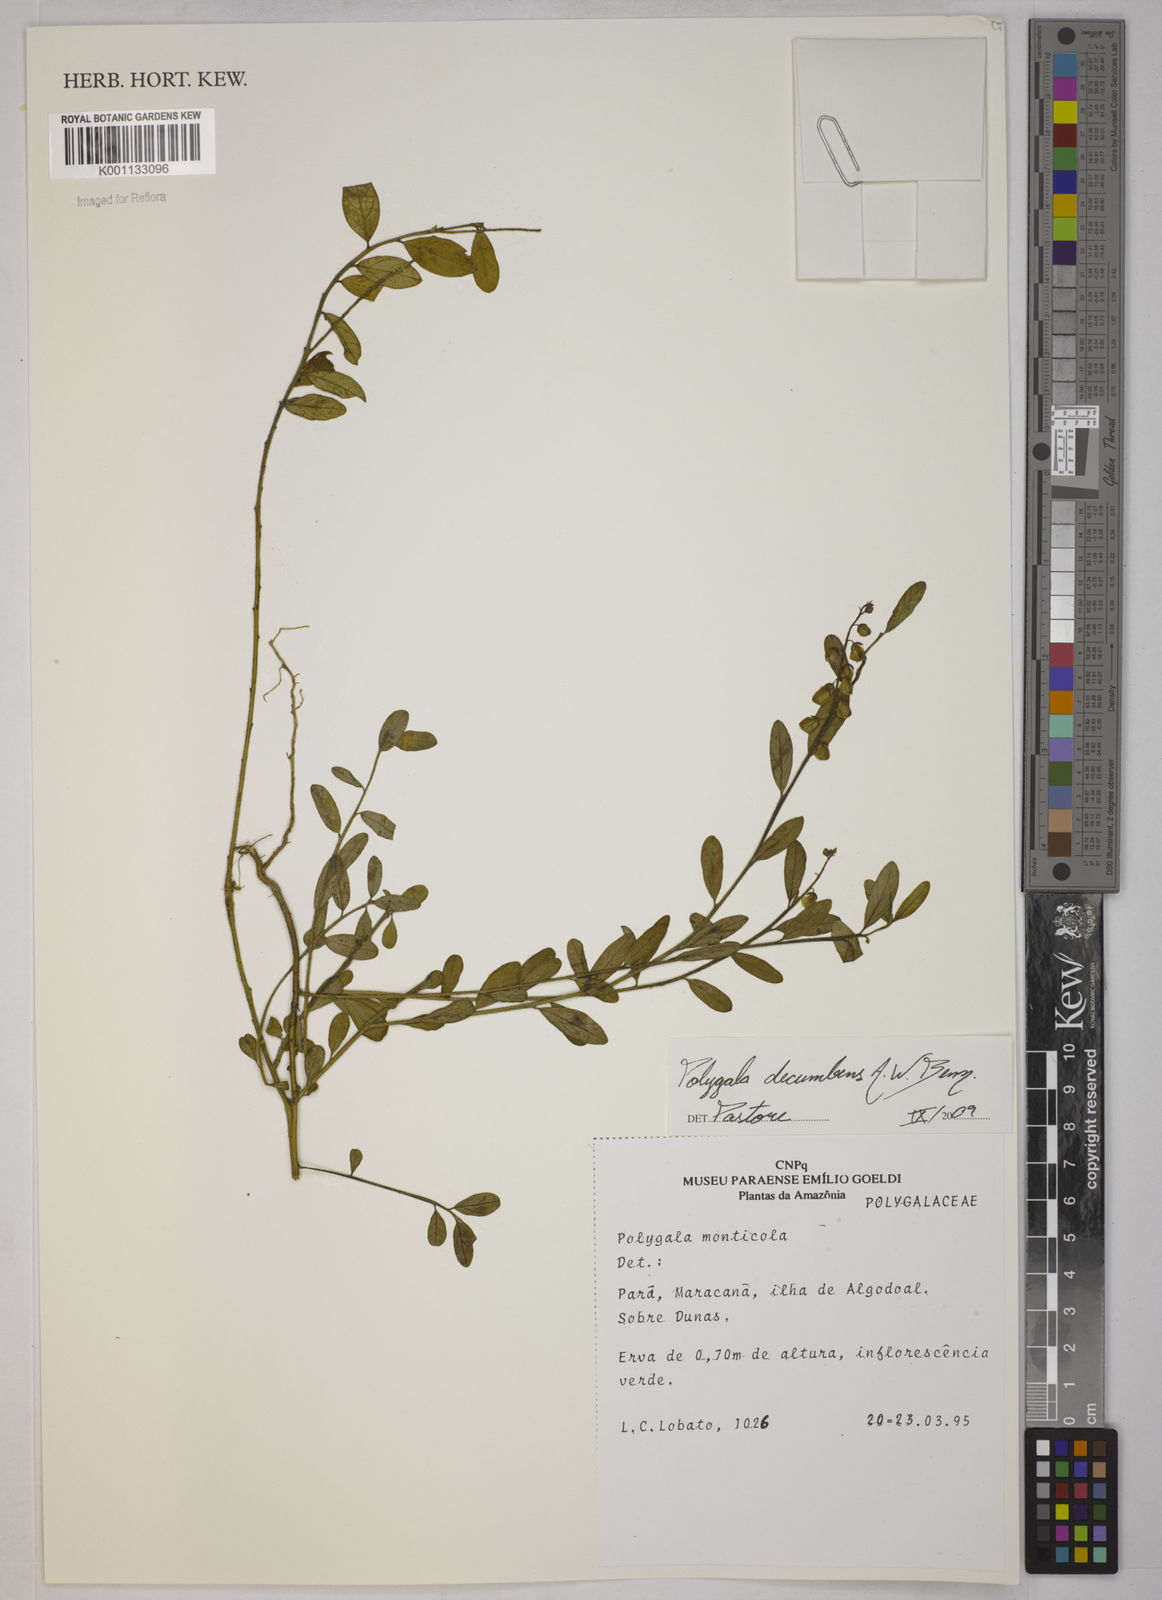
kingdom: Plantae
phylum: Tracheophyta
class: Magnoliopsida
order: Fabales
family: Polygalaceae
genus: Asemeia
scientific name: Asemeia ovata
